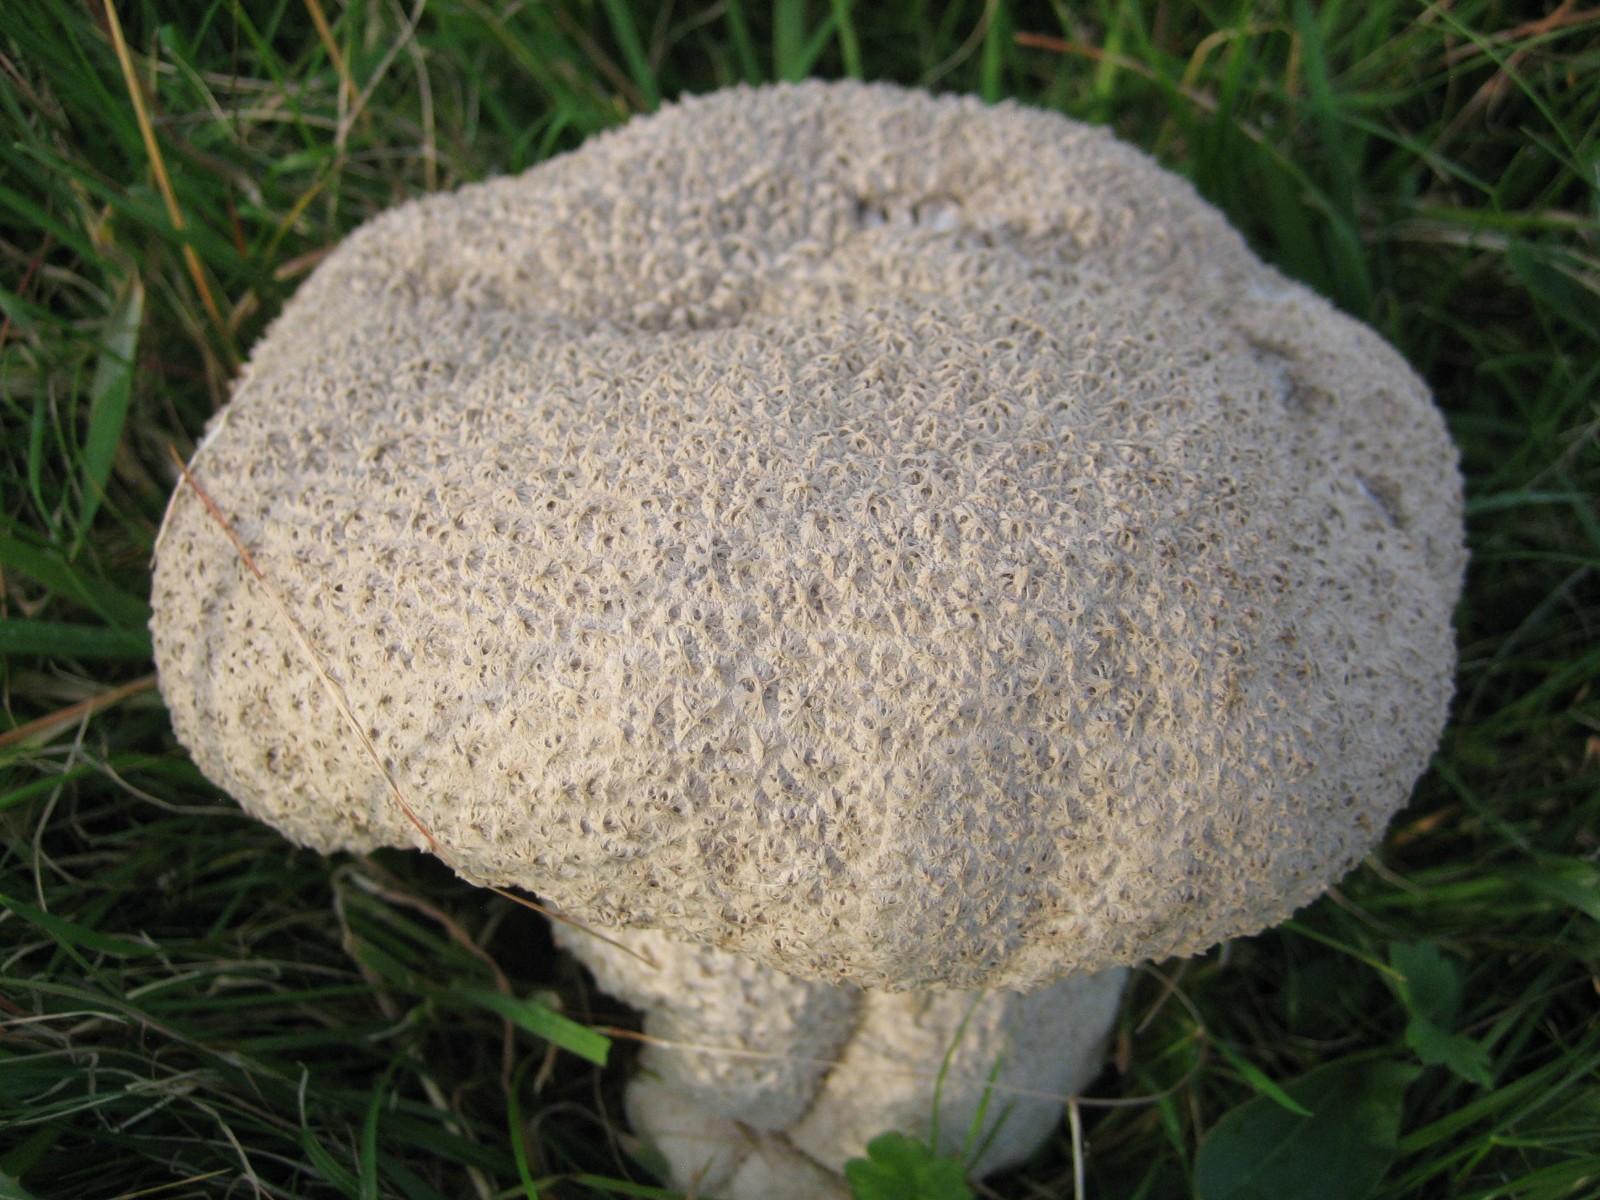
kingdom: Fungi
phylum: Basidiomycota
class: Agaricomycetes
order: Agaricales
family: Lycoperdaceae
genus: Bovistella
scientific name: Bovistella utriformis
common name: skællet støvbold
